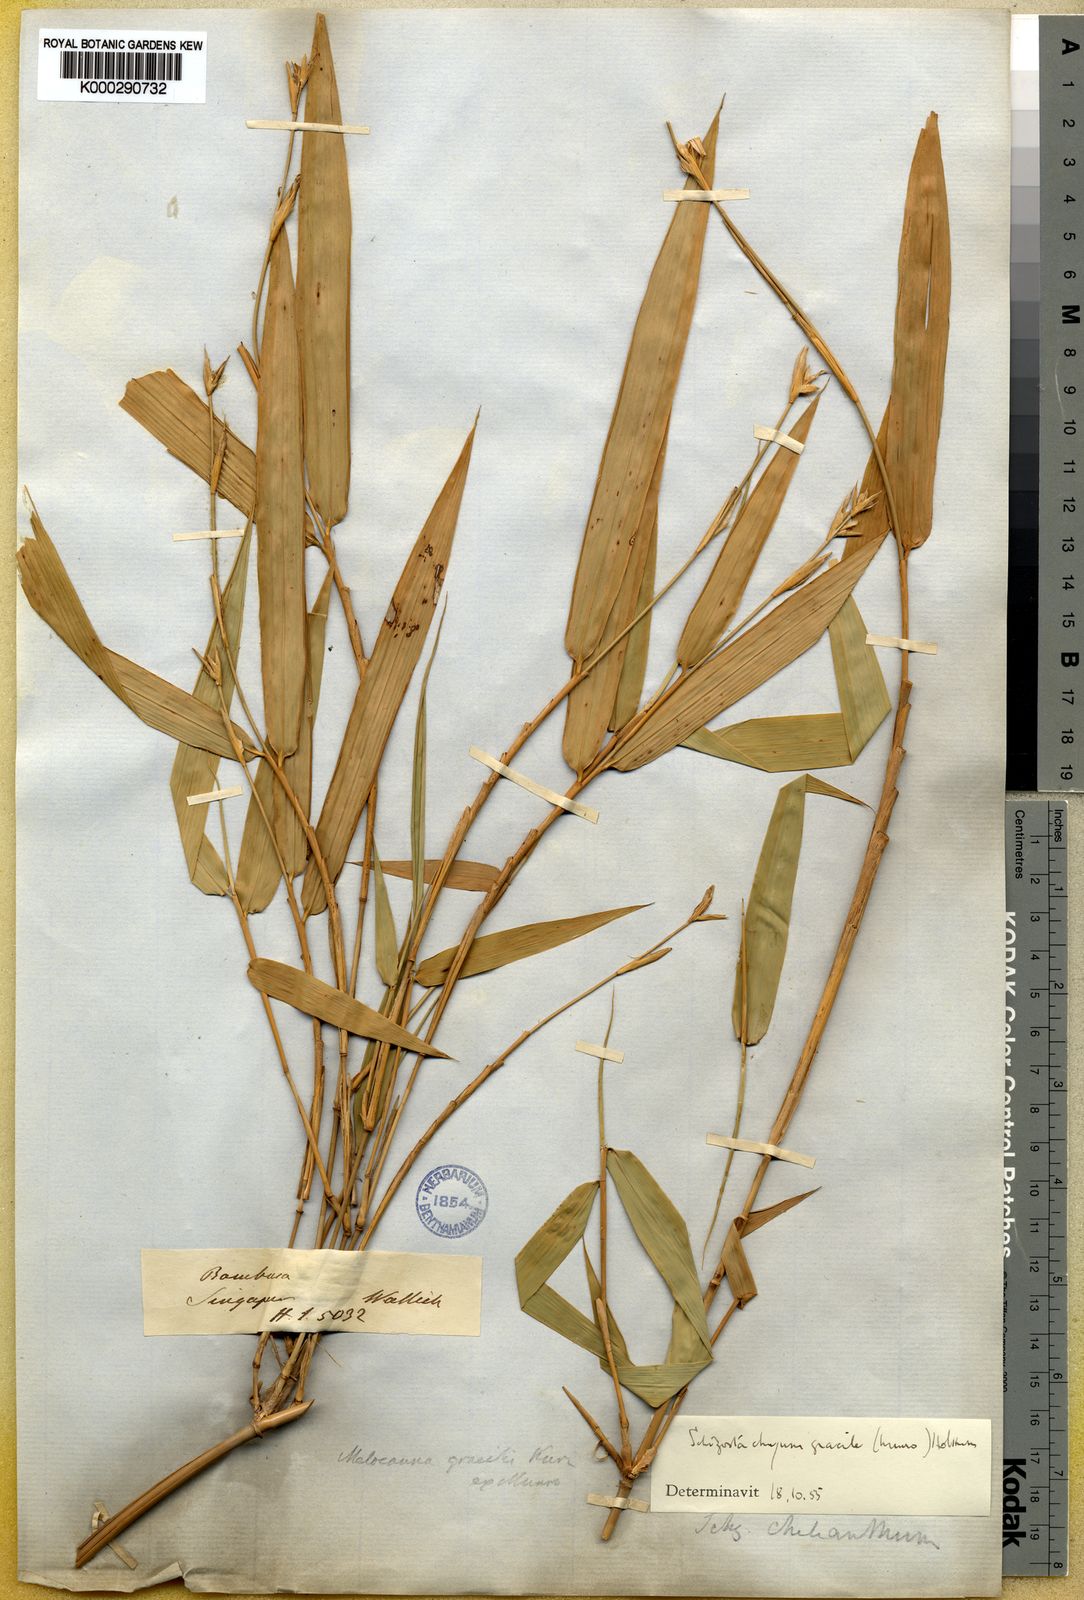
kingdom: Plantae
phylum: Tracheophyta
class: Liliopsida
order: Poales
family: Poaceae
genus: Schizostachyum
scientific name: Schizostachyum gracile
